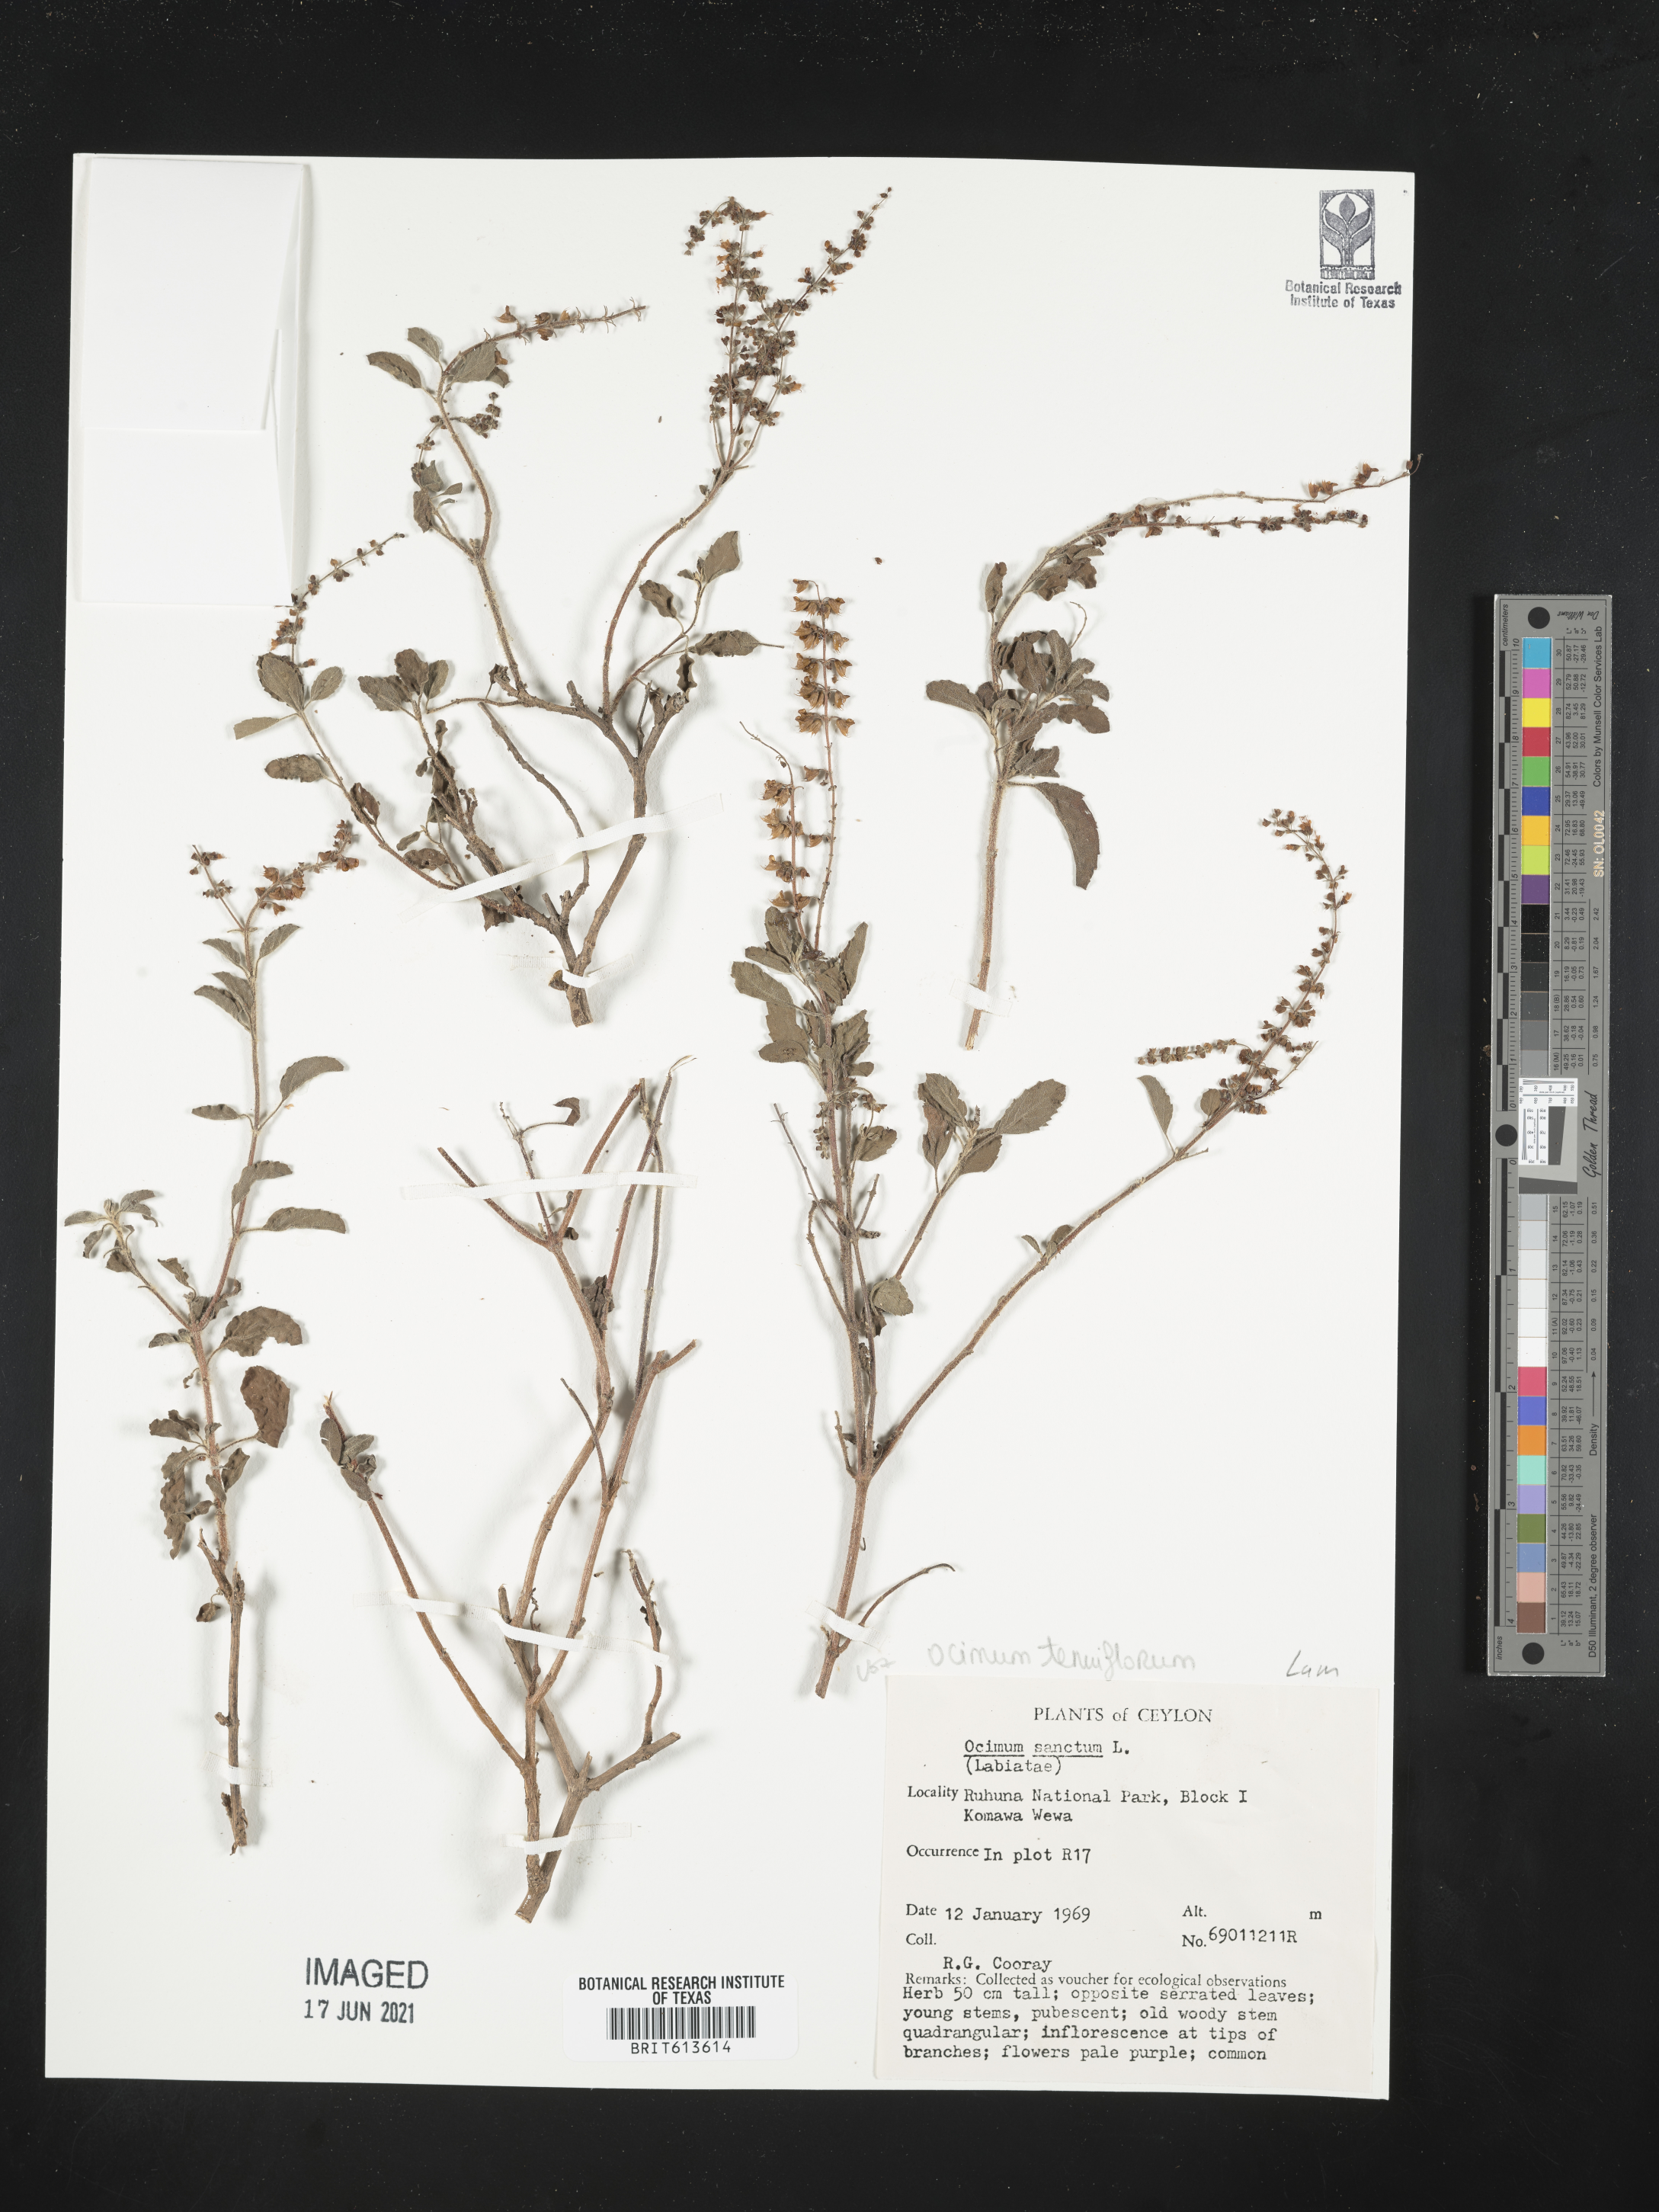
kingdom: Plantae
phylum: Tracheophyta
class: Magnoliopsida
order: Lamiales
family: Lamiaceae
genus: Ocimum
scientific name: Ocimum tenuiflorum
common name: Sacred basil
